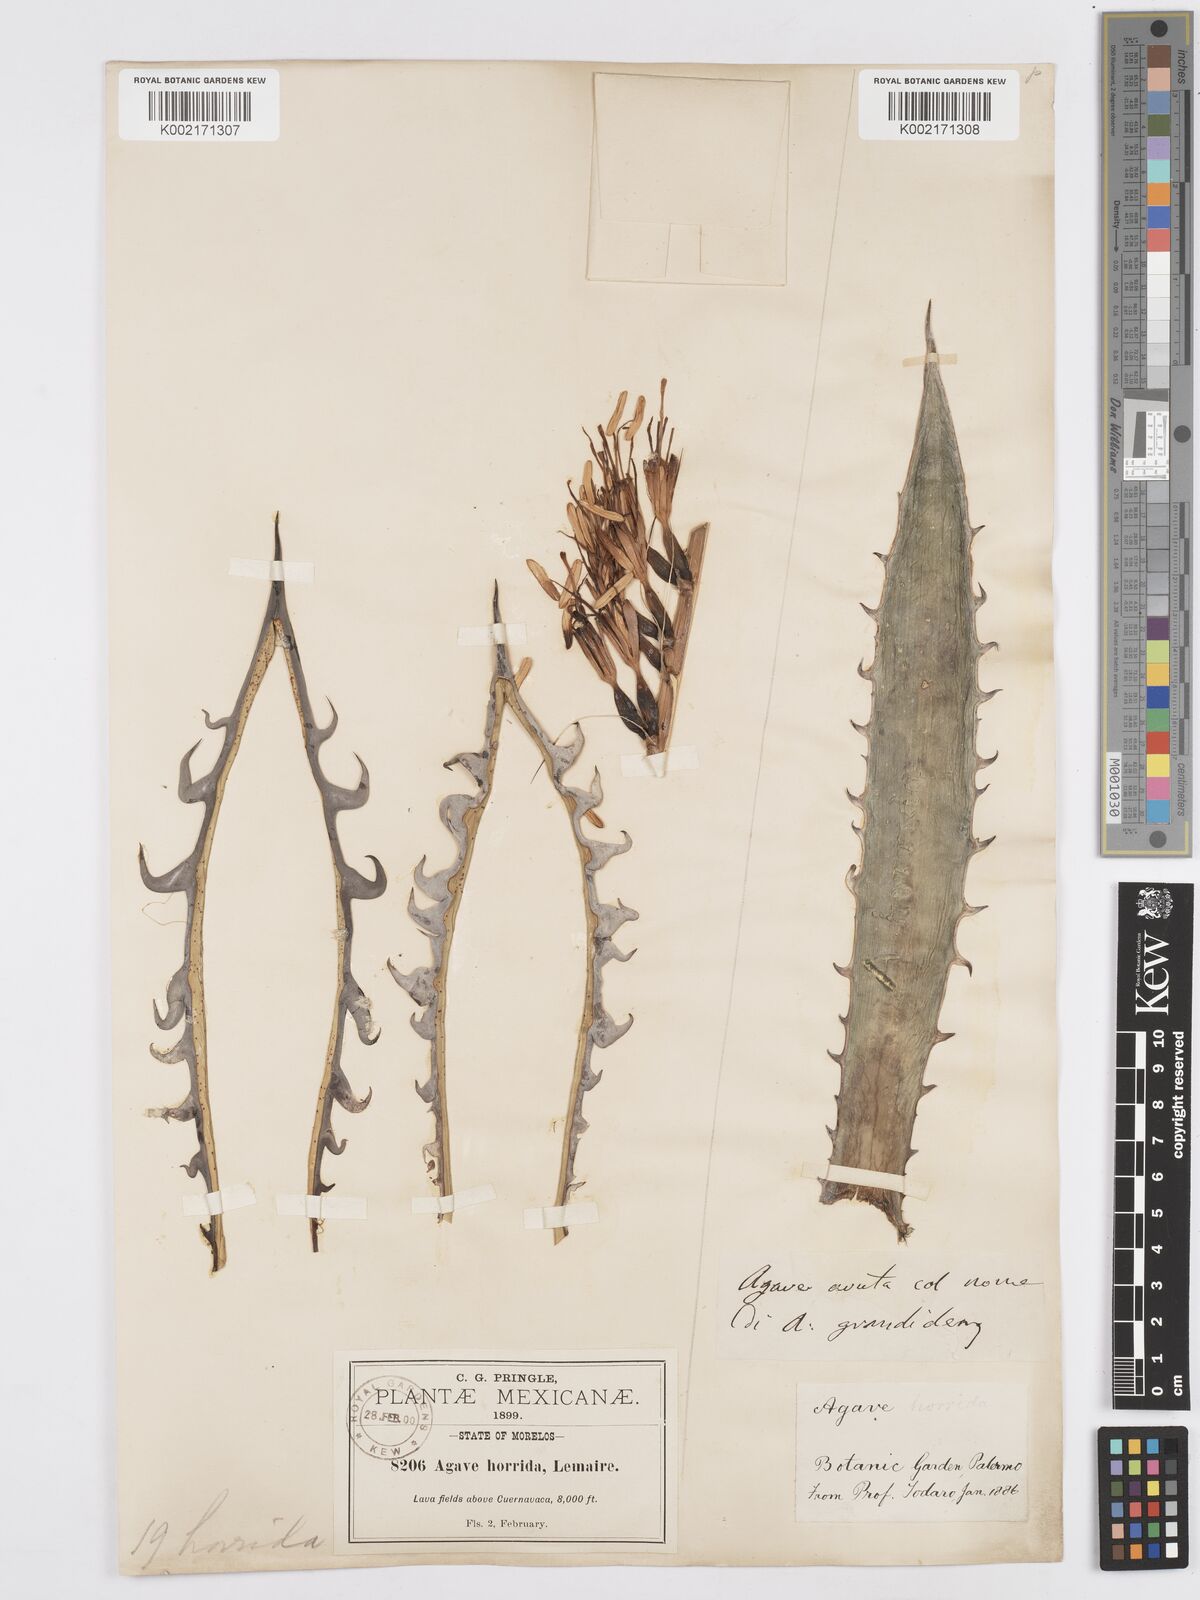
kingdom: Plantae
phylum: Tracheophyta
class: Liliopsida
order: Asparagales
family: Asparagaceae
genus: Agave
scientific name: Agave horrida
